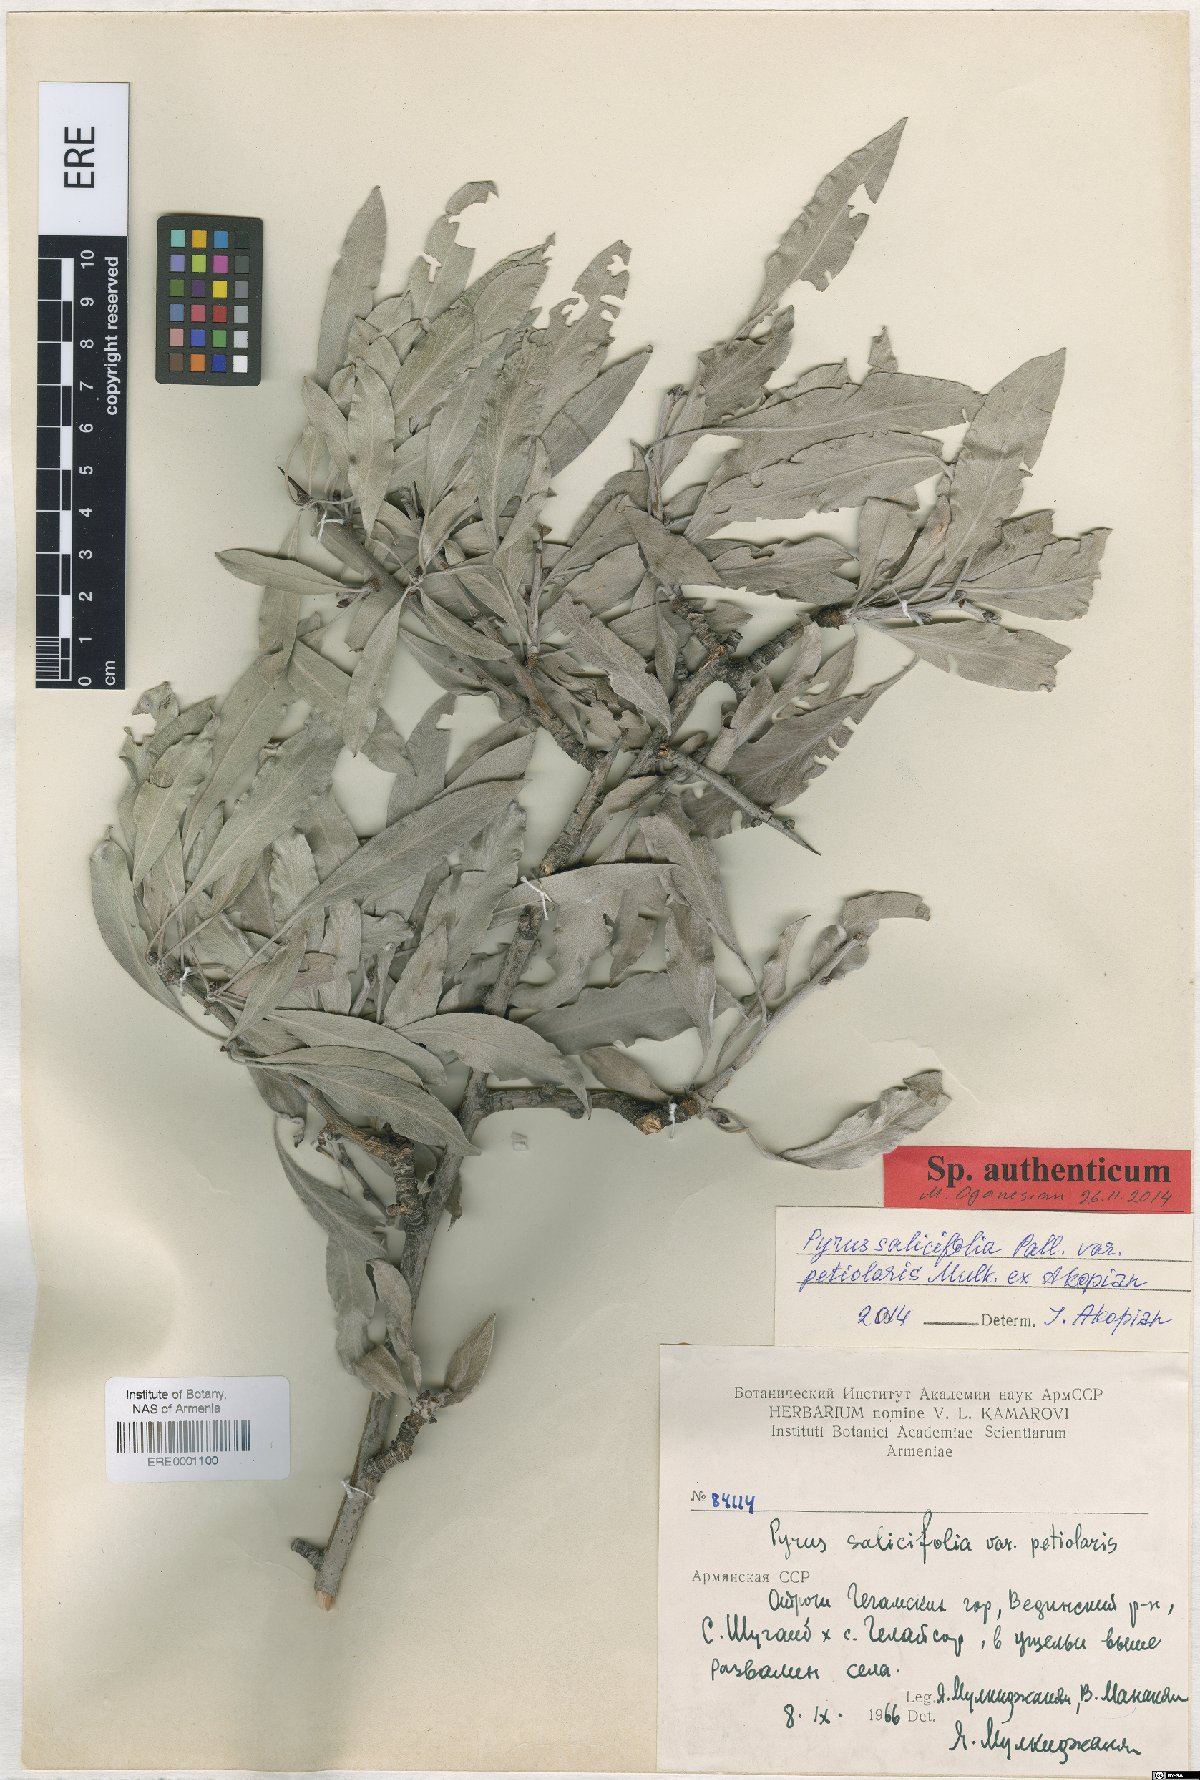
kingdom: Plantae
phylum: Tracheophyta
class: Magnoliopsida
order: Rosales
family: Rosaceae
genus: Pyrus
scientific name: Pyrus salicifolia
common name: Willow-leaved pear
